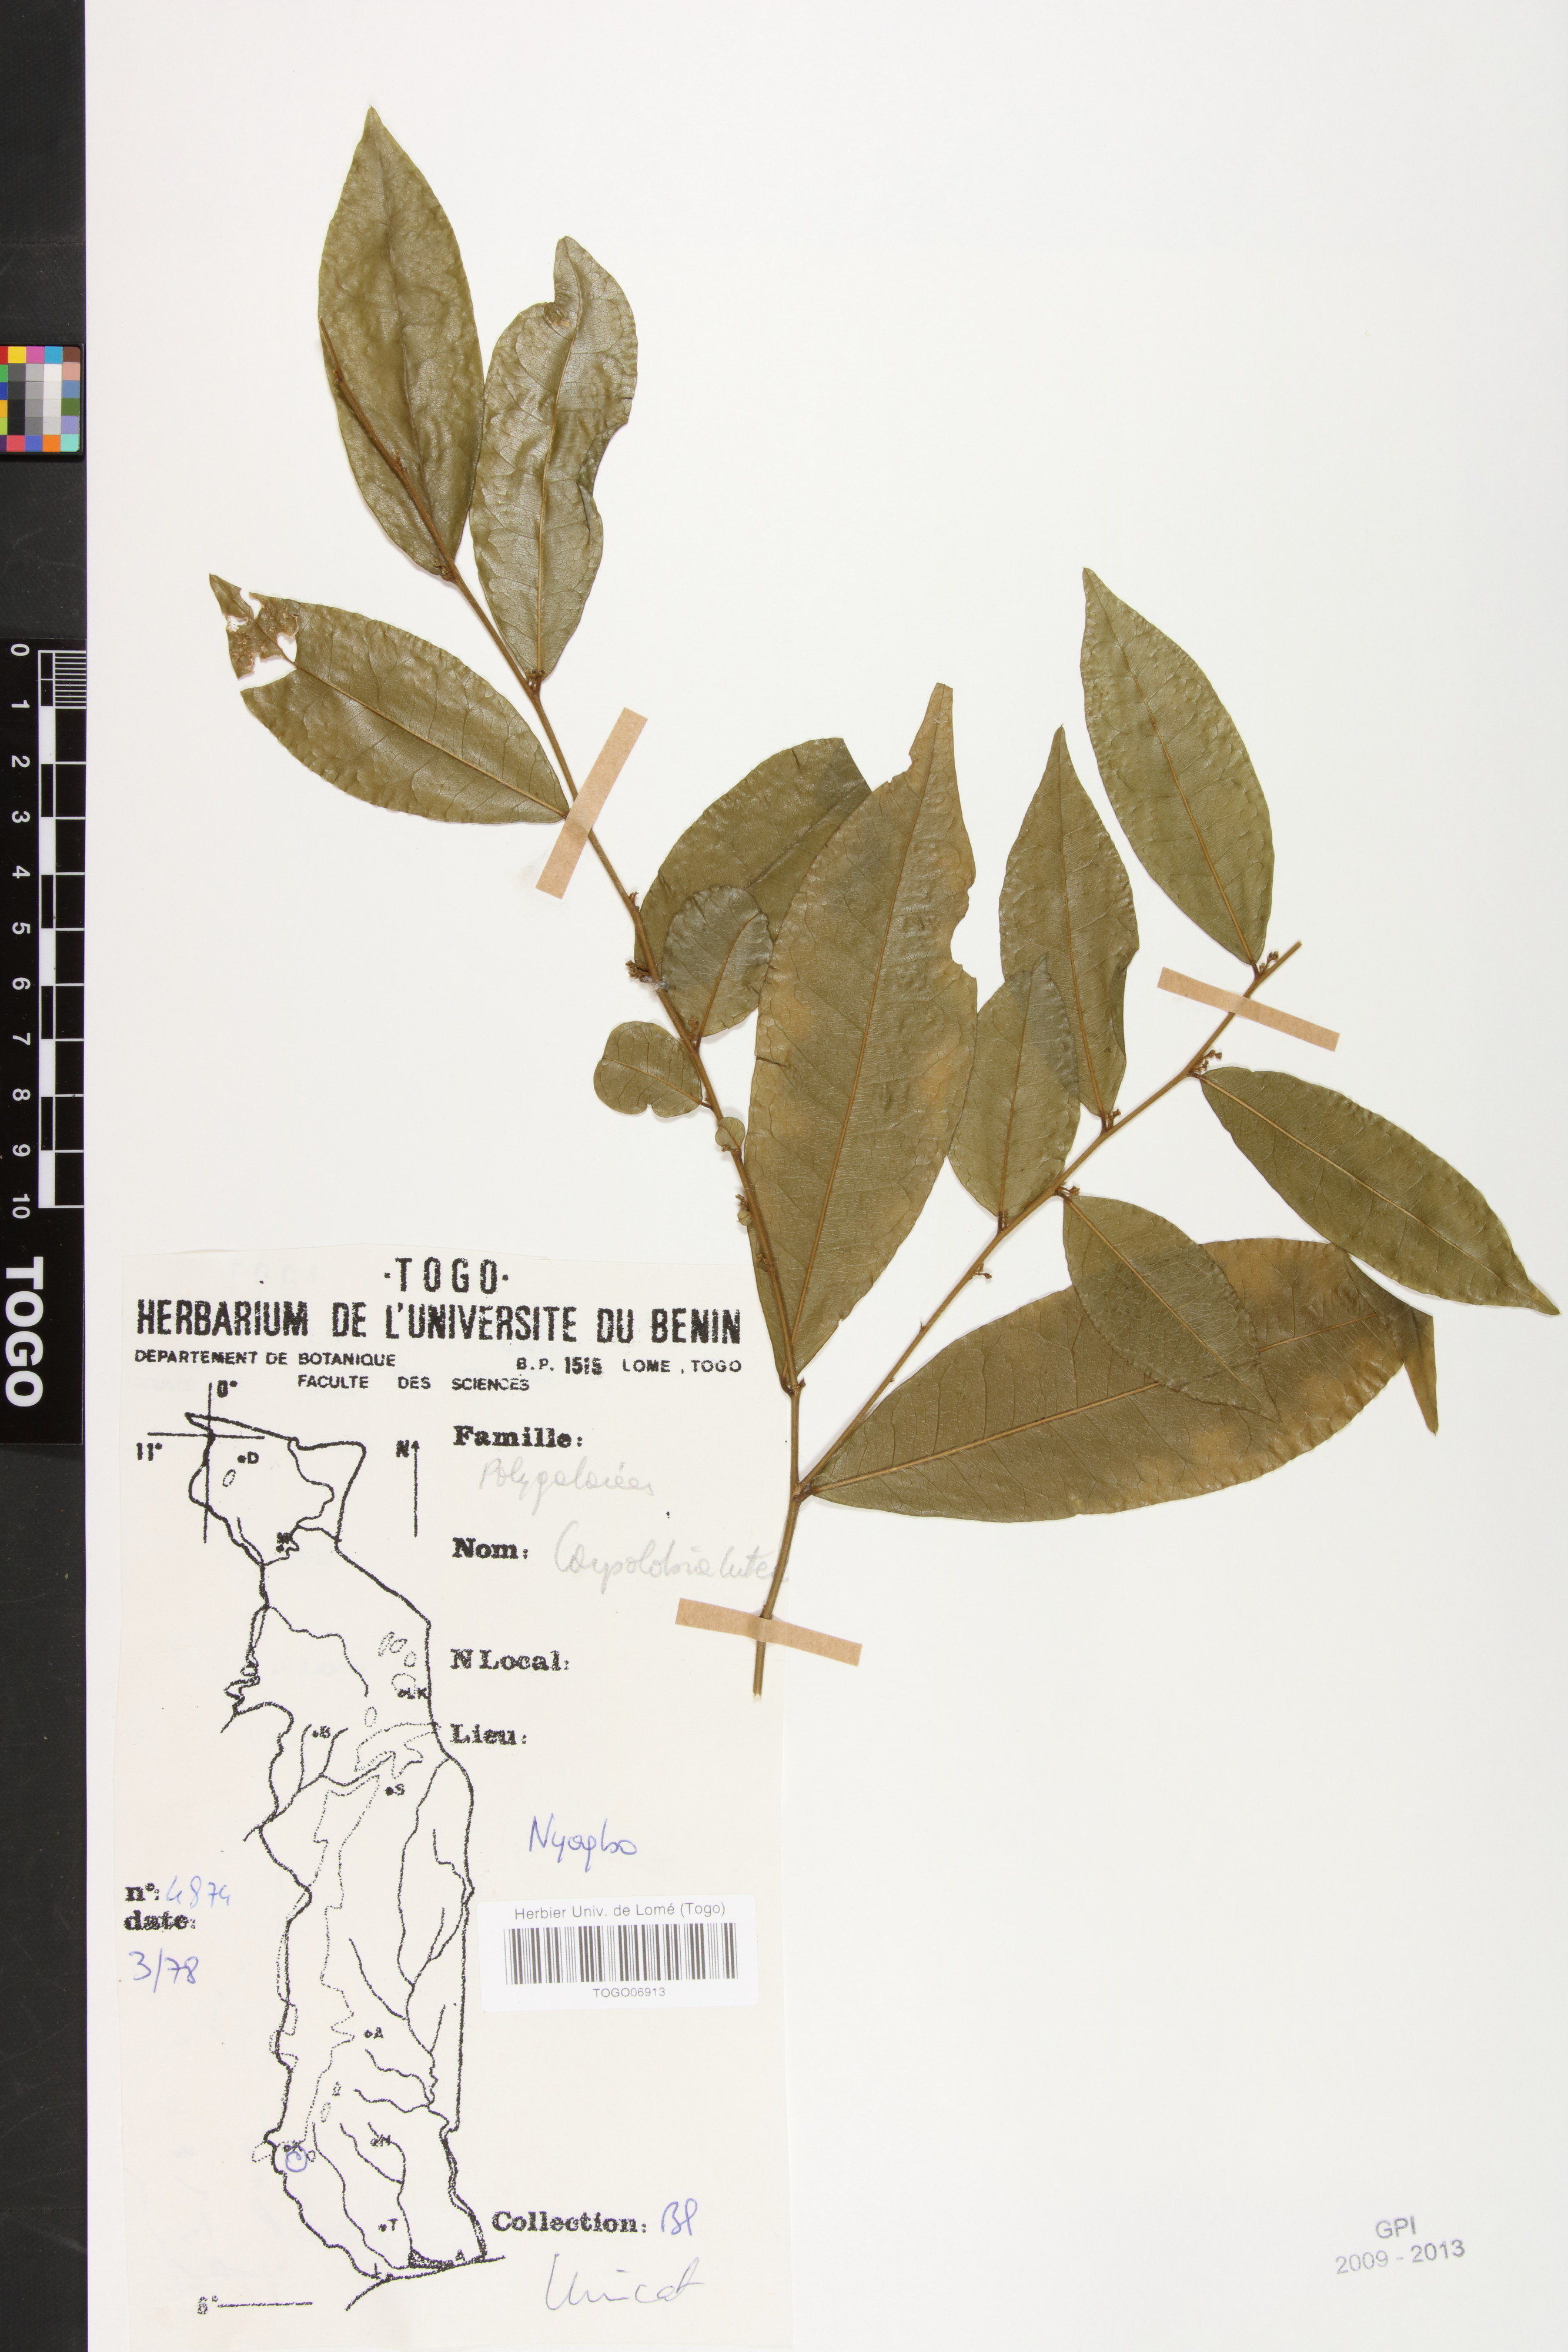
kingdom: Plantae
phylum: Tracheophyta
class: Magnoliopsida
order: Fabales
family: Polygalaceae
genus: Carpolobia
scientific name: Carpolobia lutea
